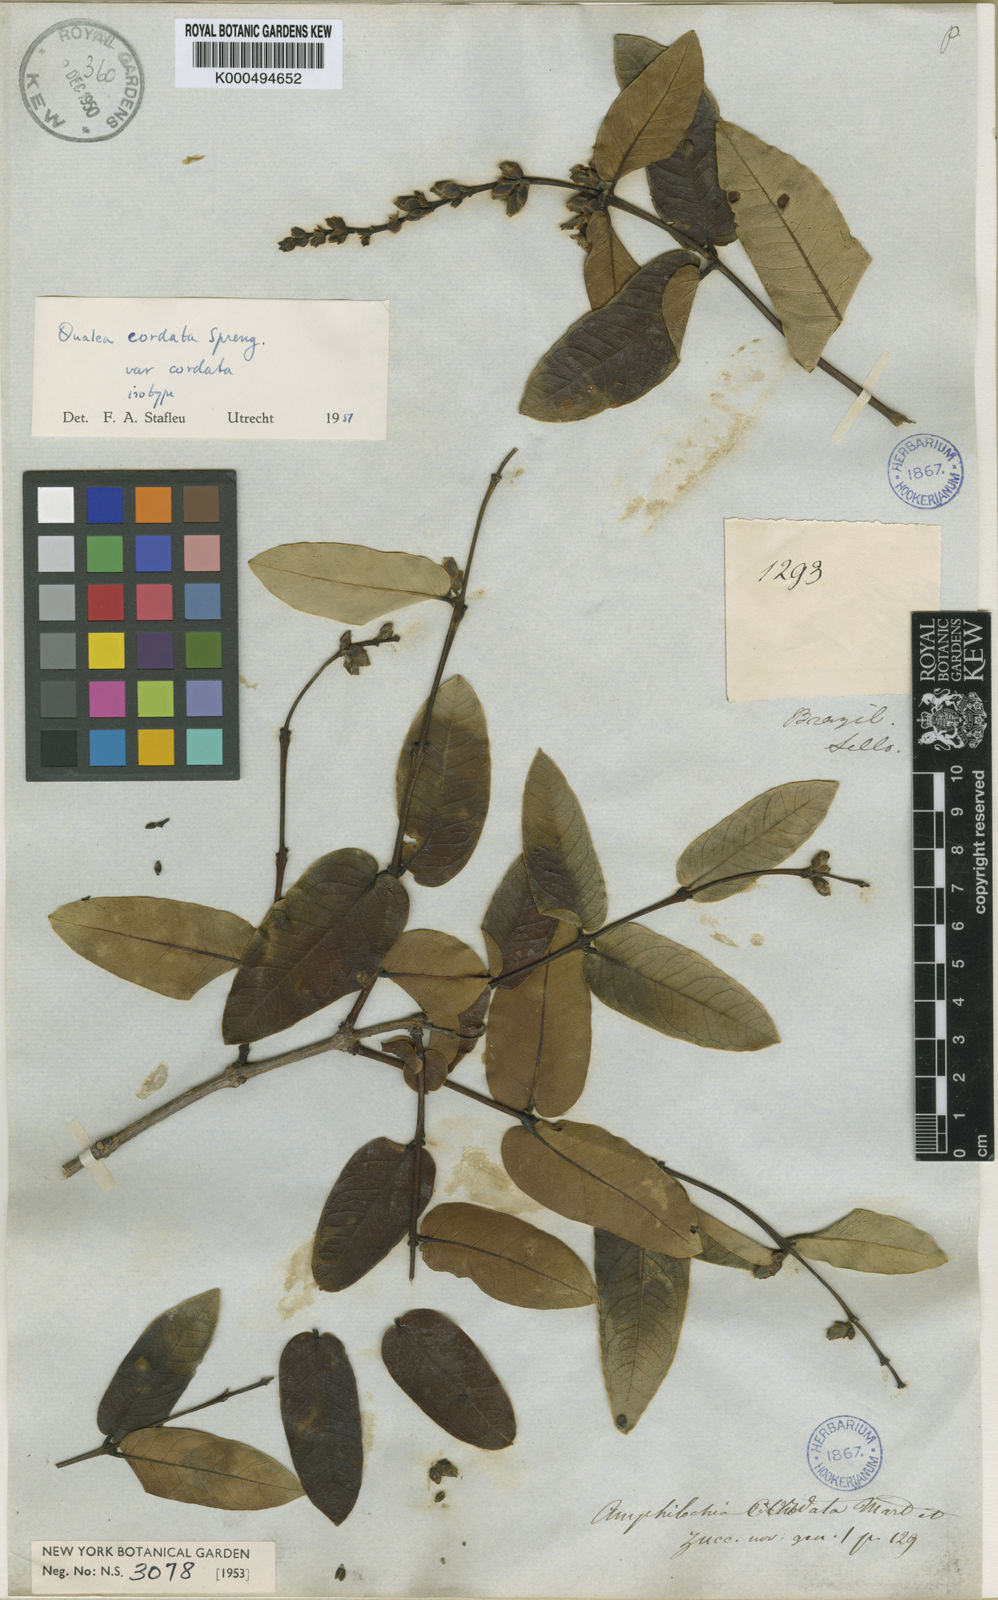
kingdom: Plantae
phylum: Tracheophyta
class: Magnoliopsida
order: Myrtales
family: Vochysiaceae
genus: Qualea
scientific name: Qualea cordata
